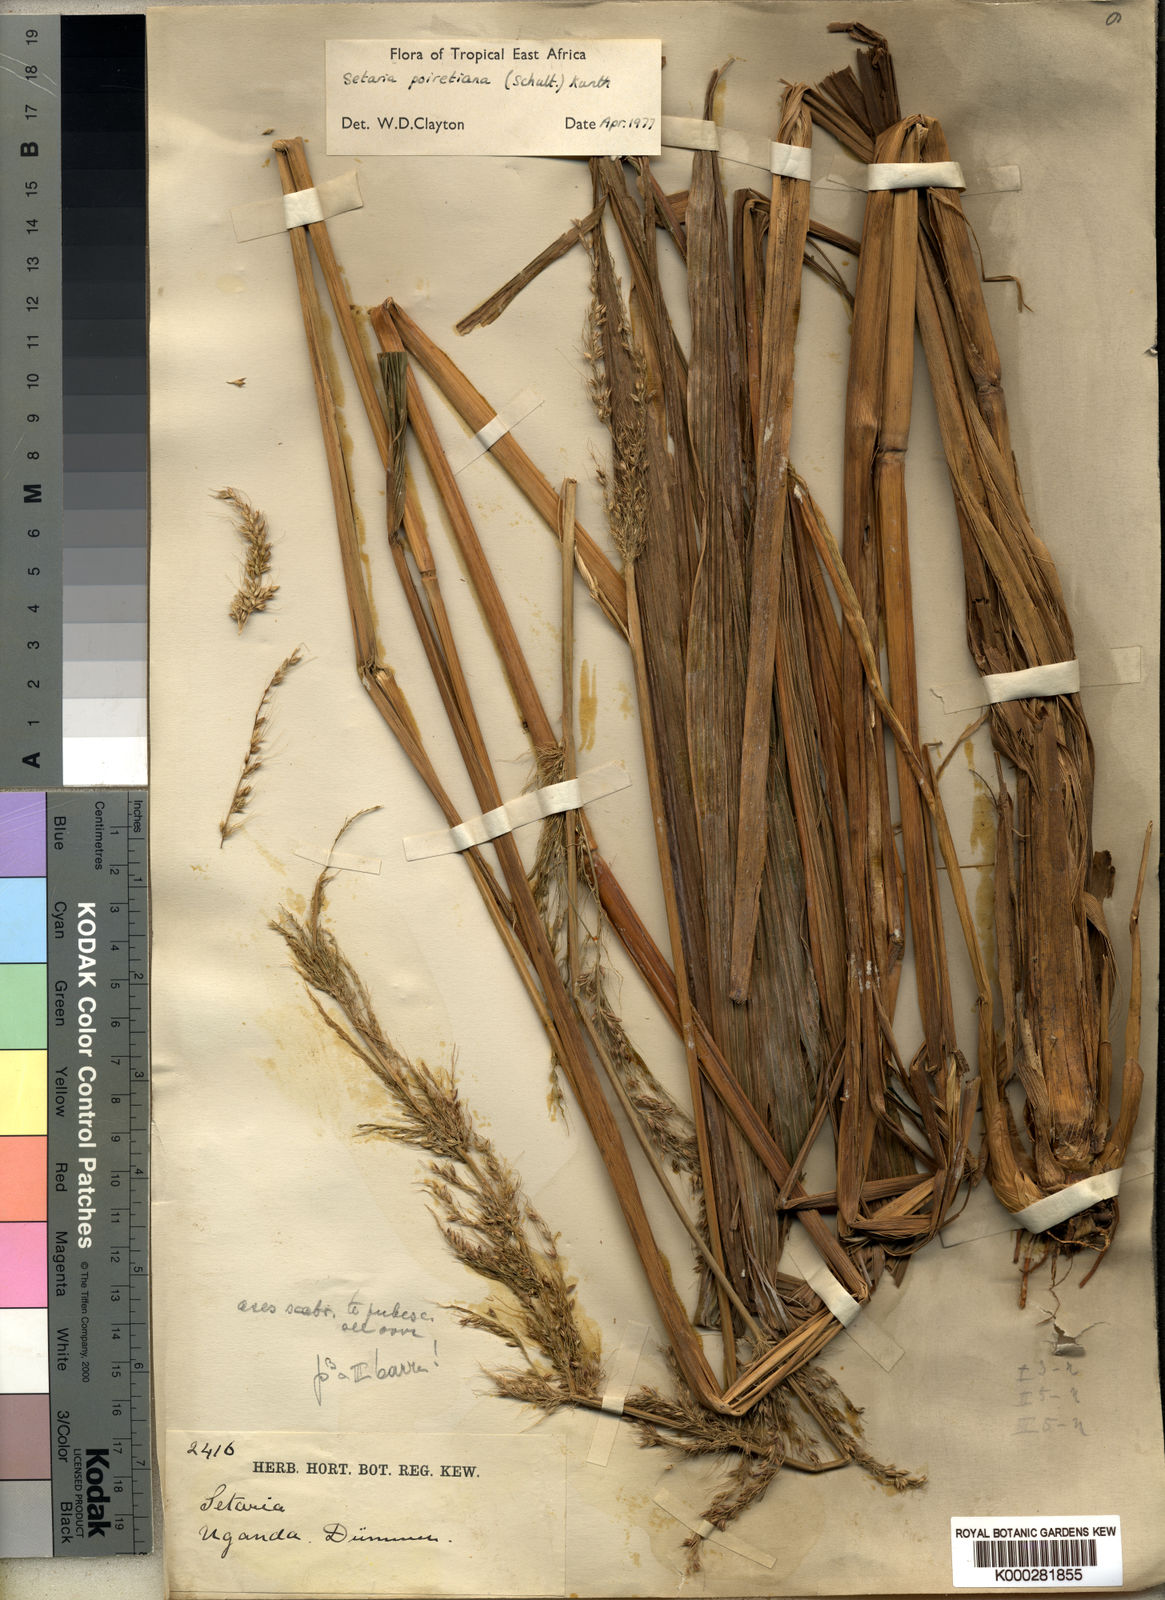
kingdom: Plantae
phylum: Tracheophyta
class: Liliopsida
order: Poales
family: Poaceae
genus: Setaria
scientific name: Setaria poiretiana
